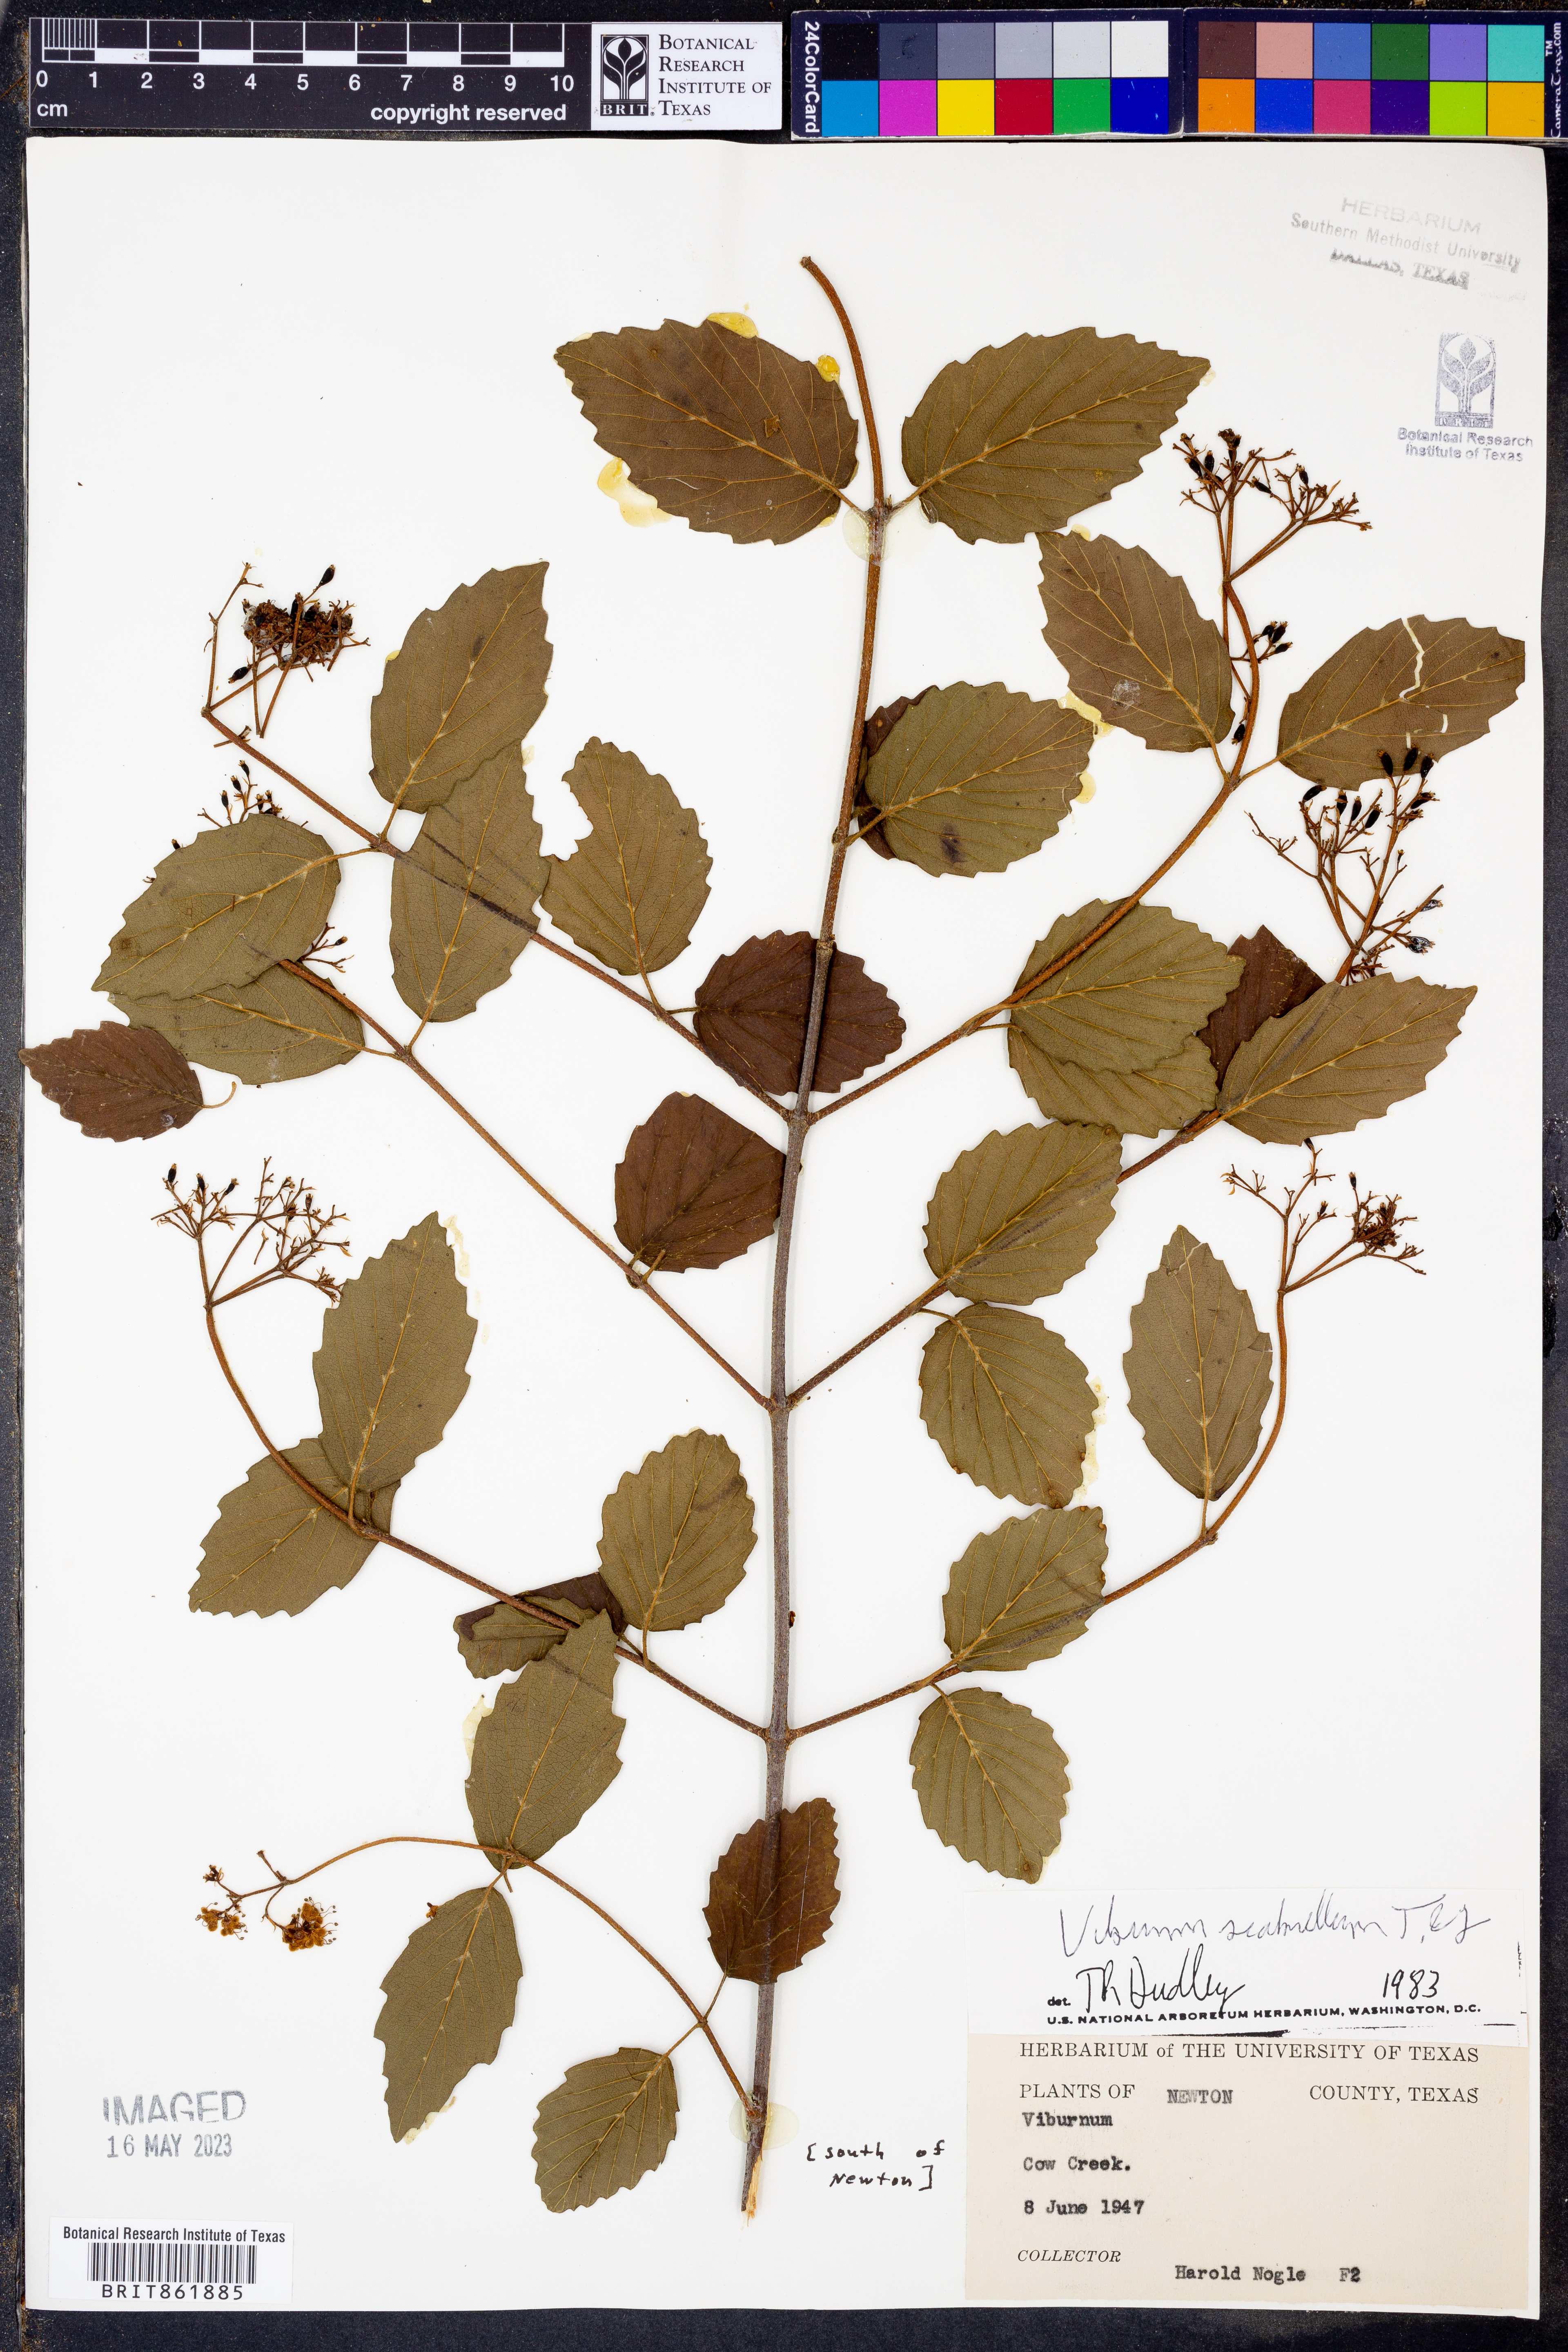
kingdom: Plantae
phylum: Tracheophyta
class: Magnoliopsida
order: Dipsacales
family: Viburnaceae
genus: Viburnum
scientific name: Viburnum scabrellum
